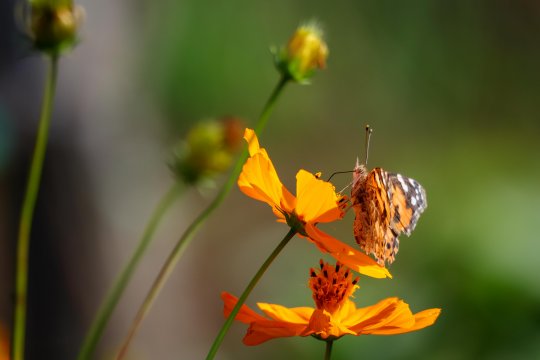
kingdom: Animalia
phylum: Arthropoda
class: Insecta
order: Lepidoptera
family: Nymphalidae
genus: Vanessa
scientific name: Vanessa cardui
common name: Painted Lady
